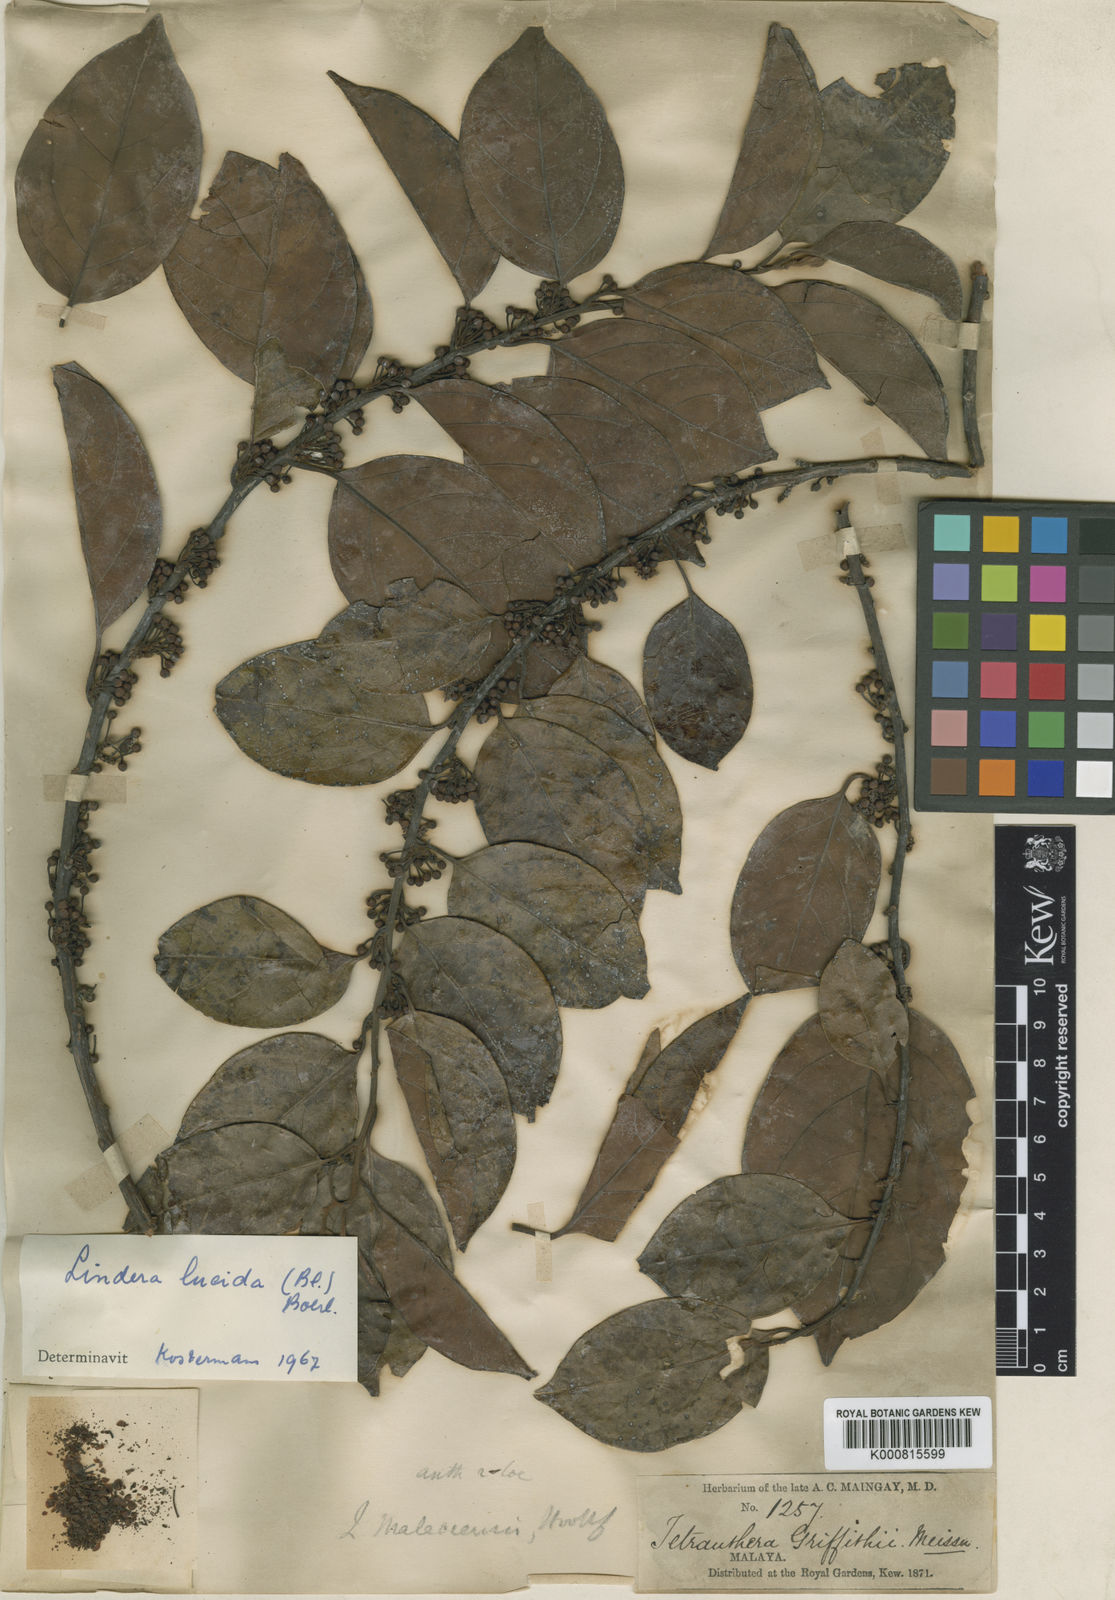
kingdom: Plantae
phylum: Tracheophyta
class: Magnoliopsida
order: Laurales
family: Lauraceae
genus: Lindera
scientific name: Lindera lucida
